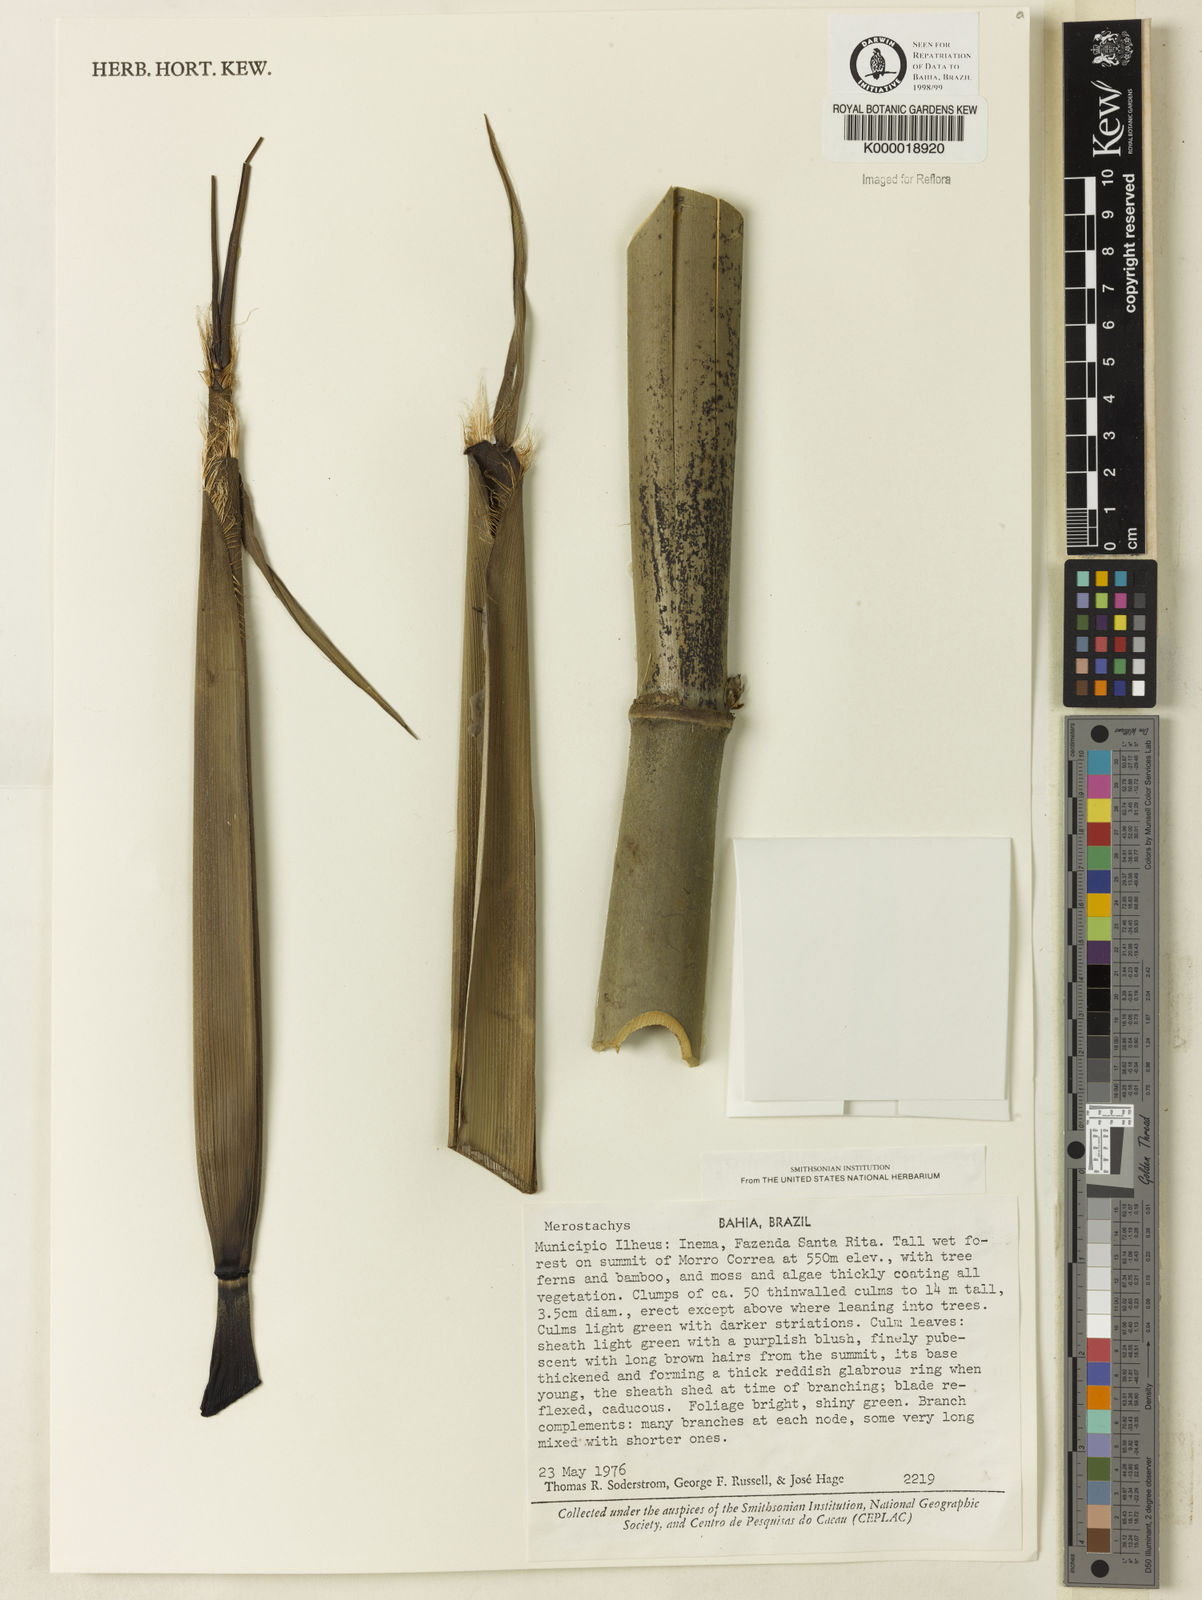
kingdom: Plantae
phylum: Tracheophyta
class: Liliopsida
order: Poales
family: Poaceae
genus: Merostachys
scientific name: Merostachys
